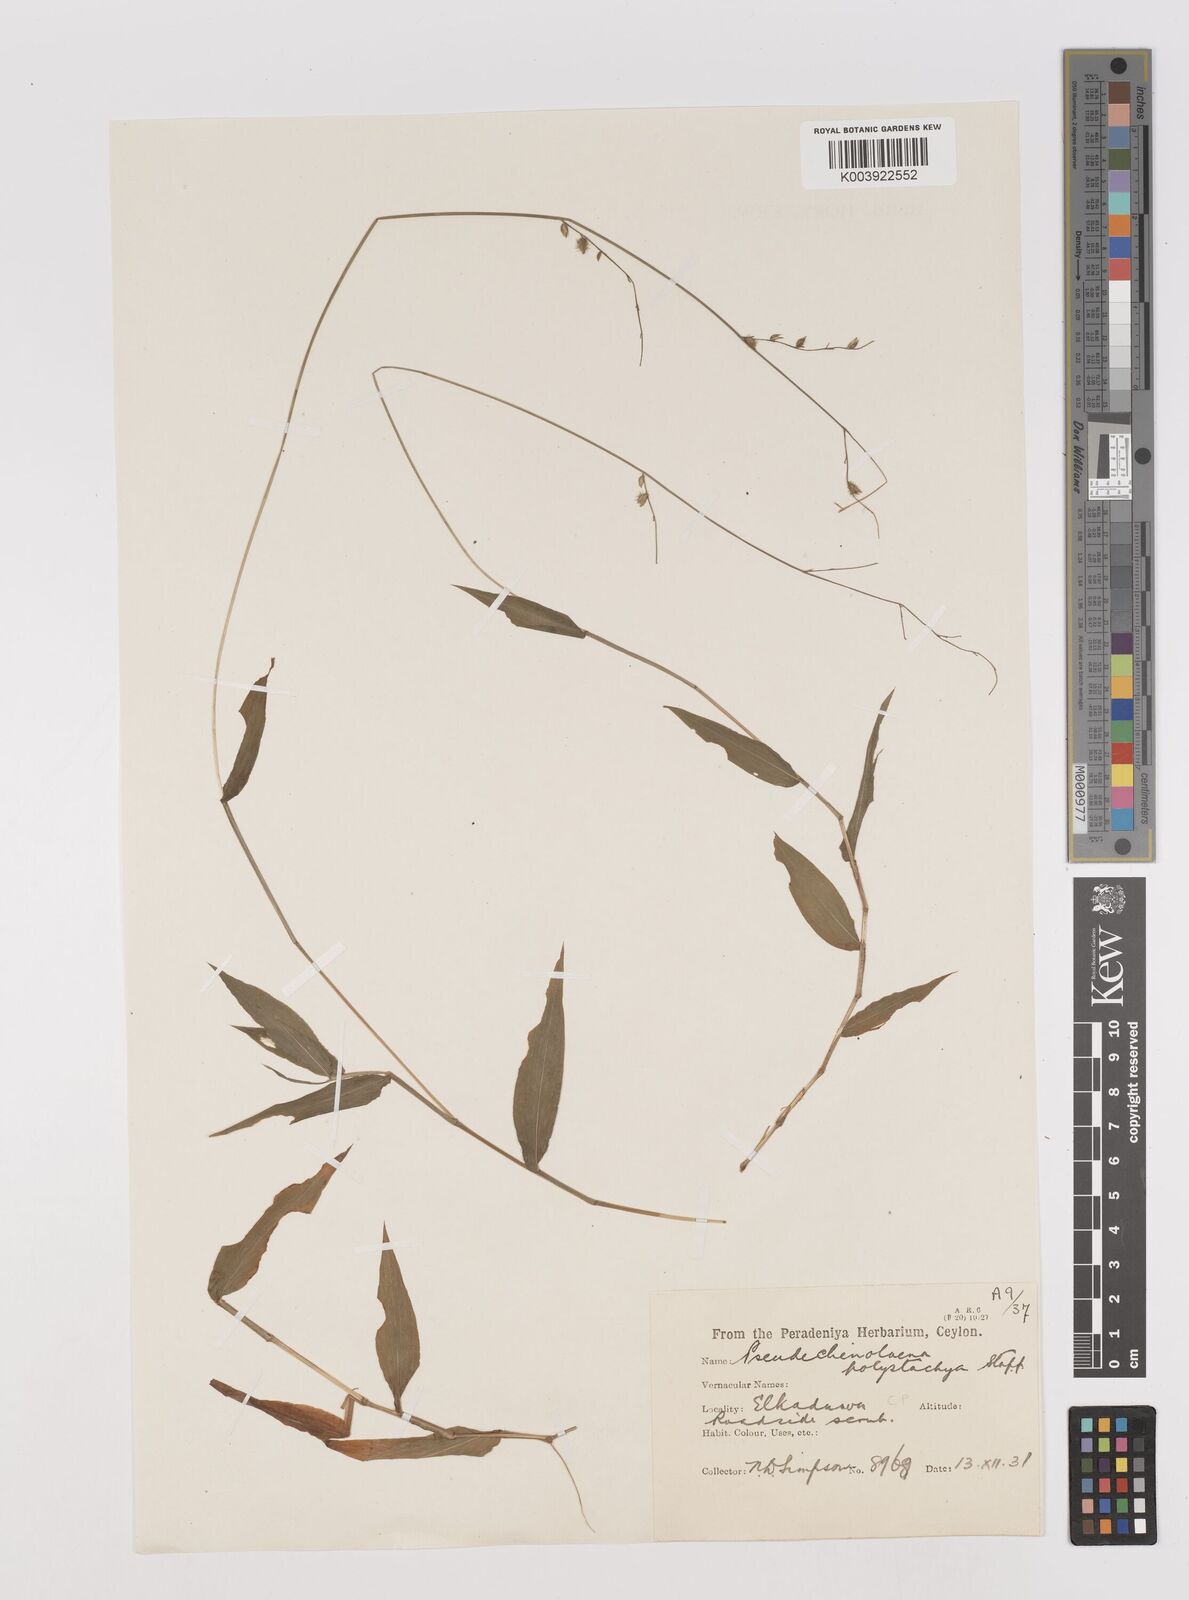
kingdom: Plantae
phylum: Tracheophyta
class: Liliopsida
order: Poales
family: Poaceae
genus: Pseudechinolaena
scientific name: Pseudechinolaena polystachya
